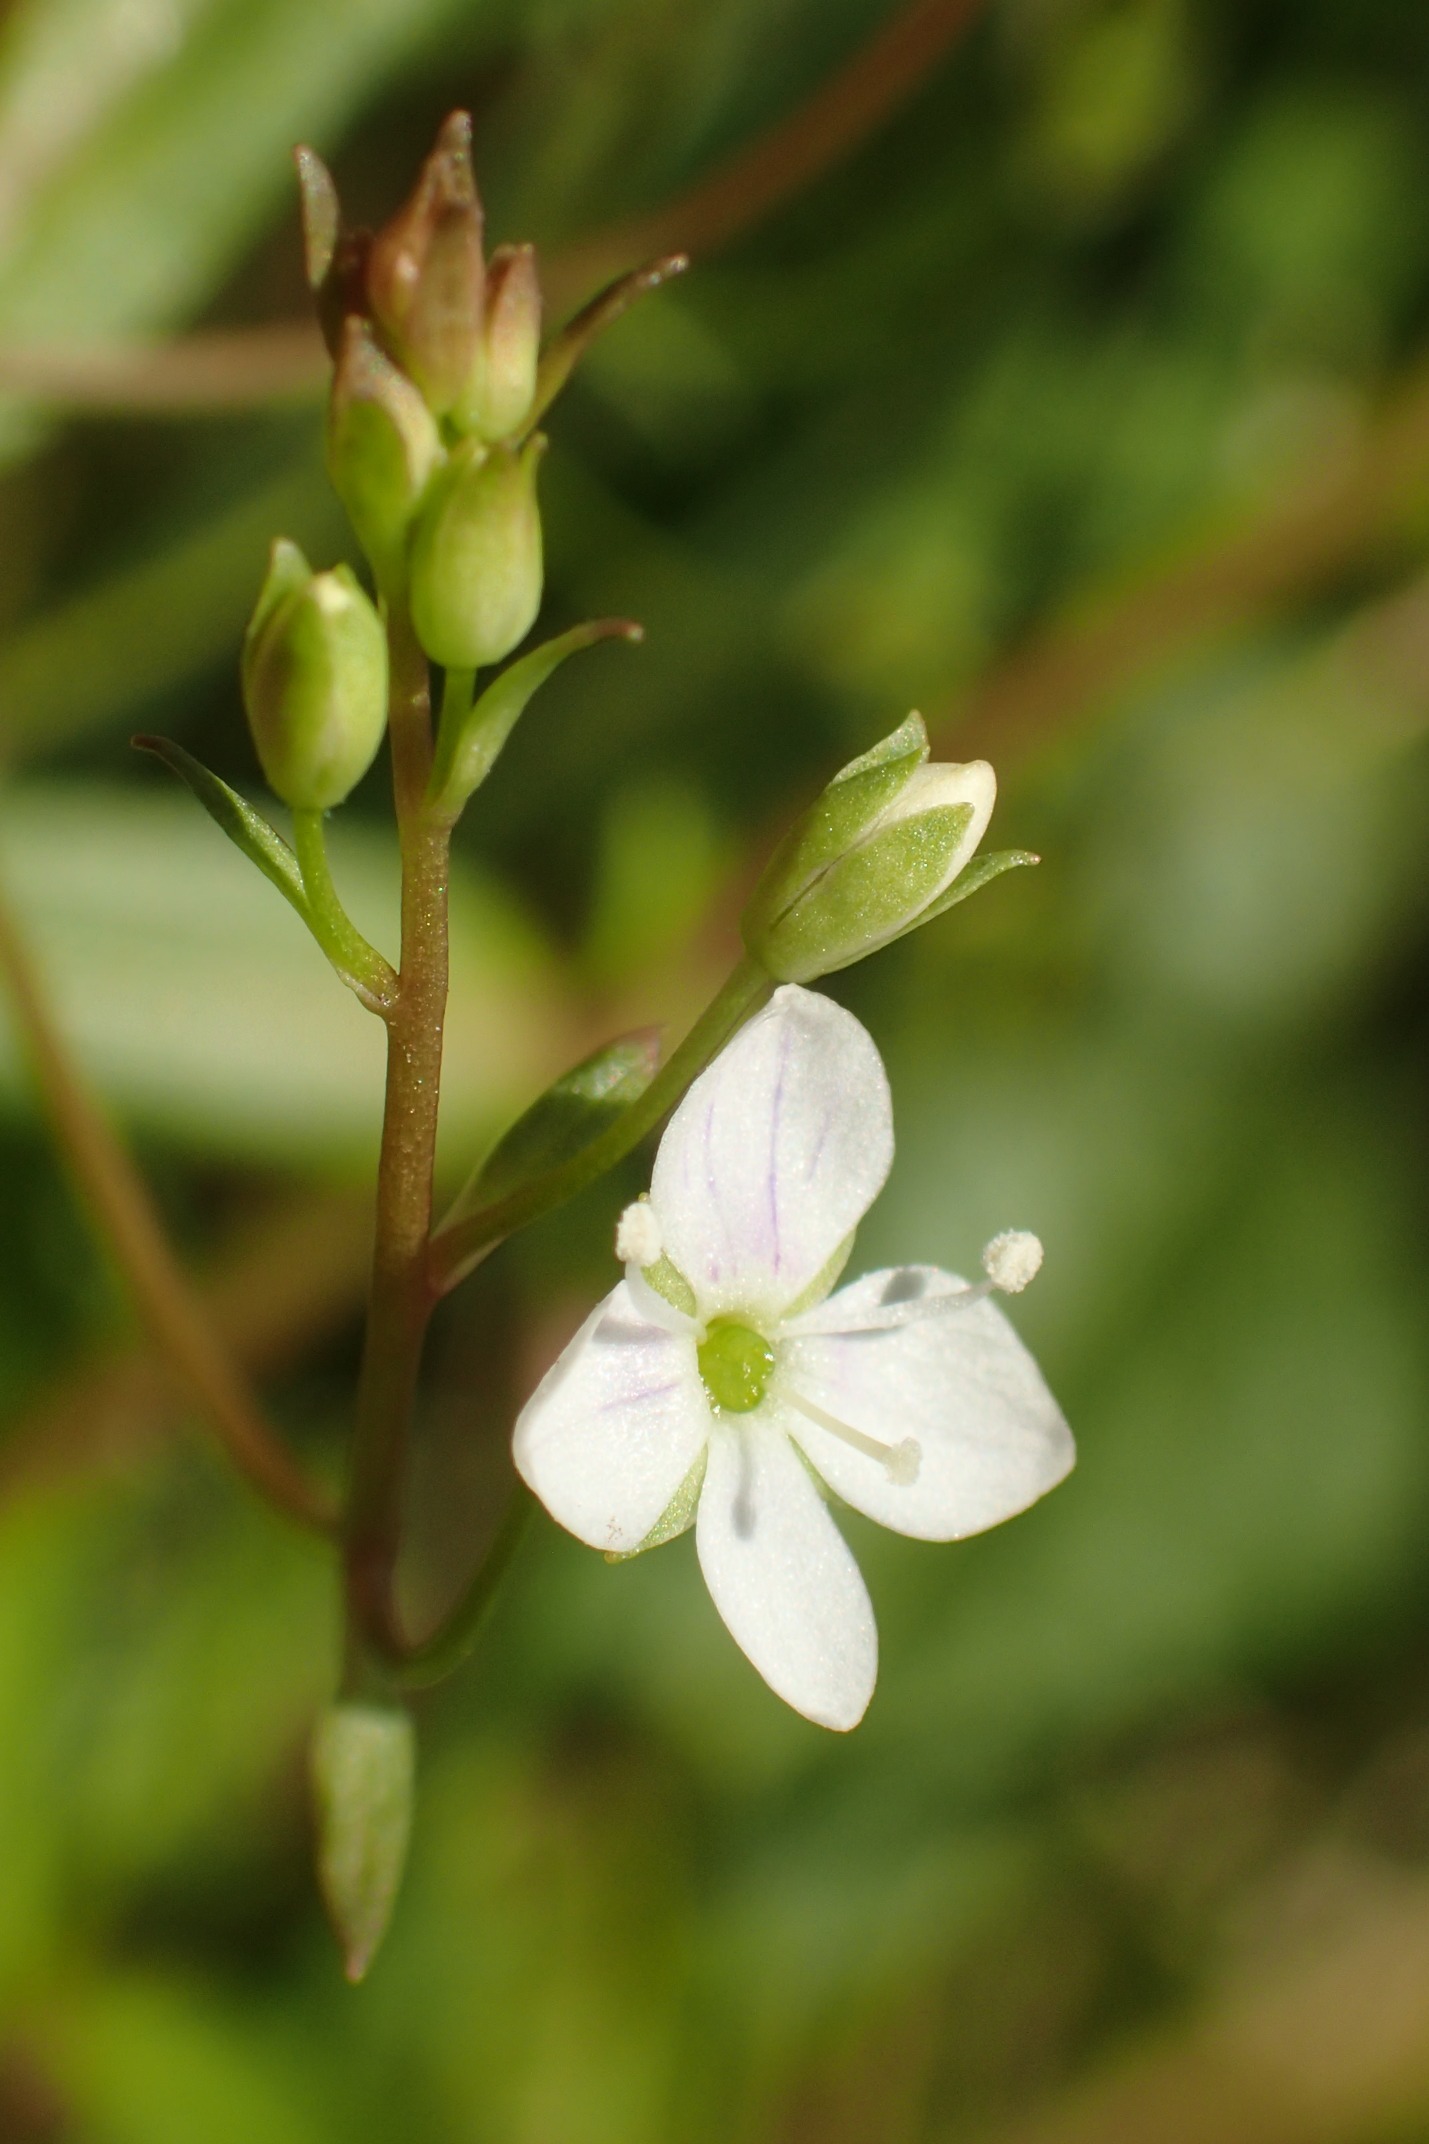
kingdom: Plantae
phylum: Tracheophyta
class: Magnoliopsida
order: Lamiales
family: Plantaginaceae
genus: Veronica
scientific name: Veronica scutellata
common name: Smalbladet ærenpris
